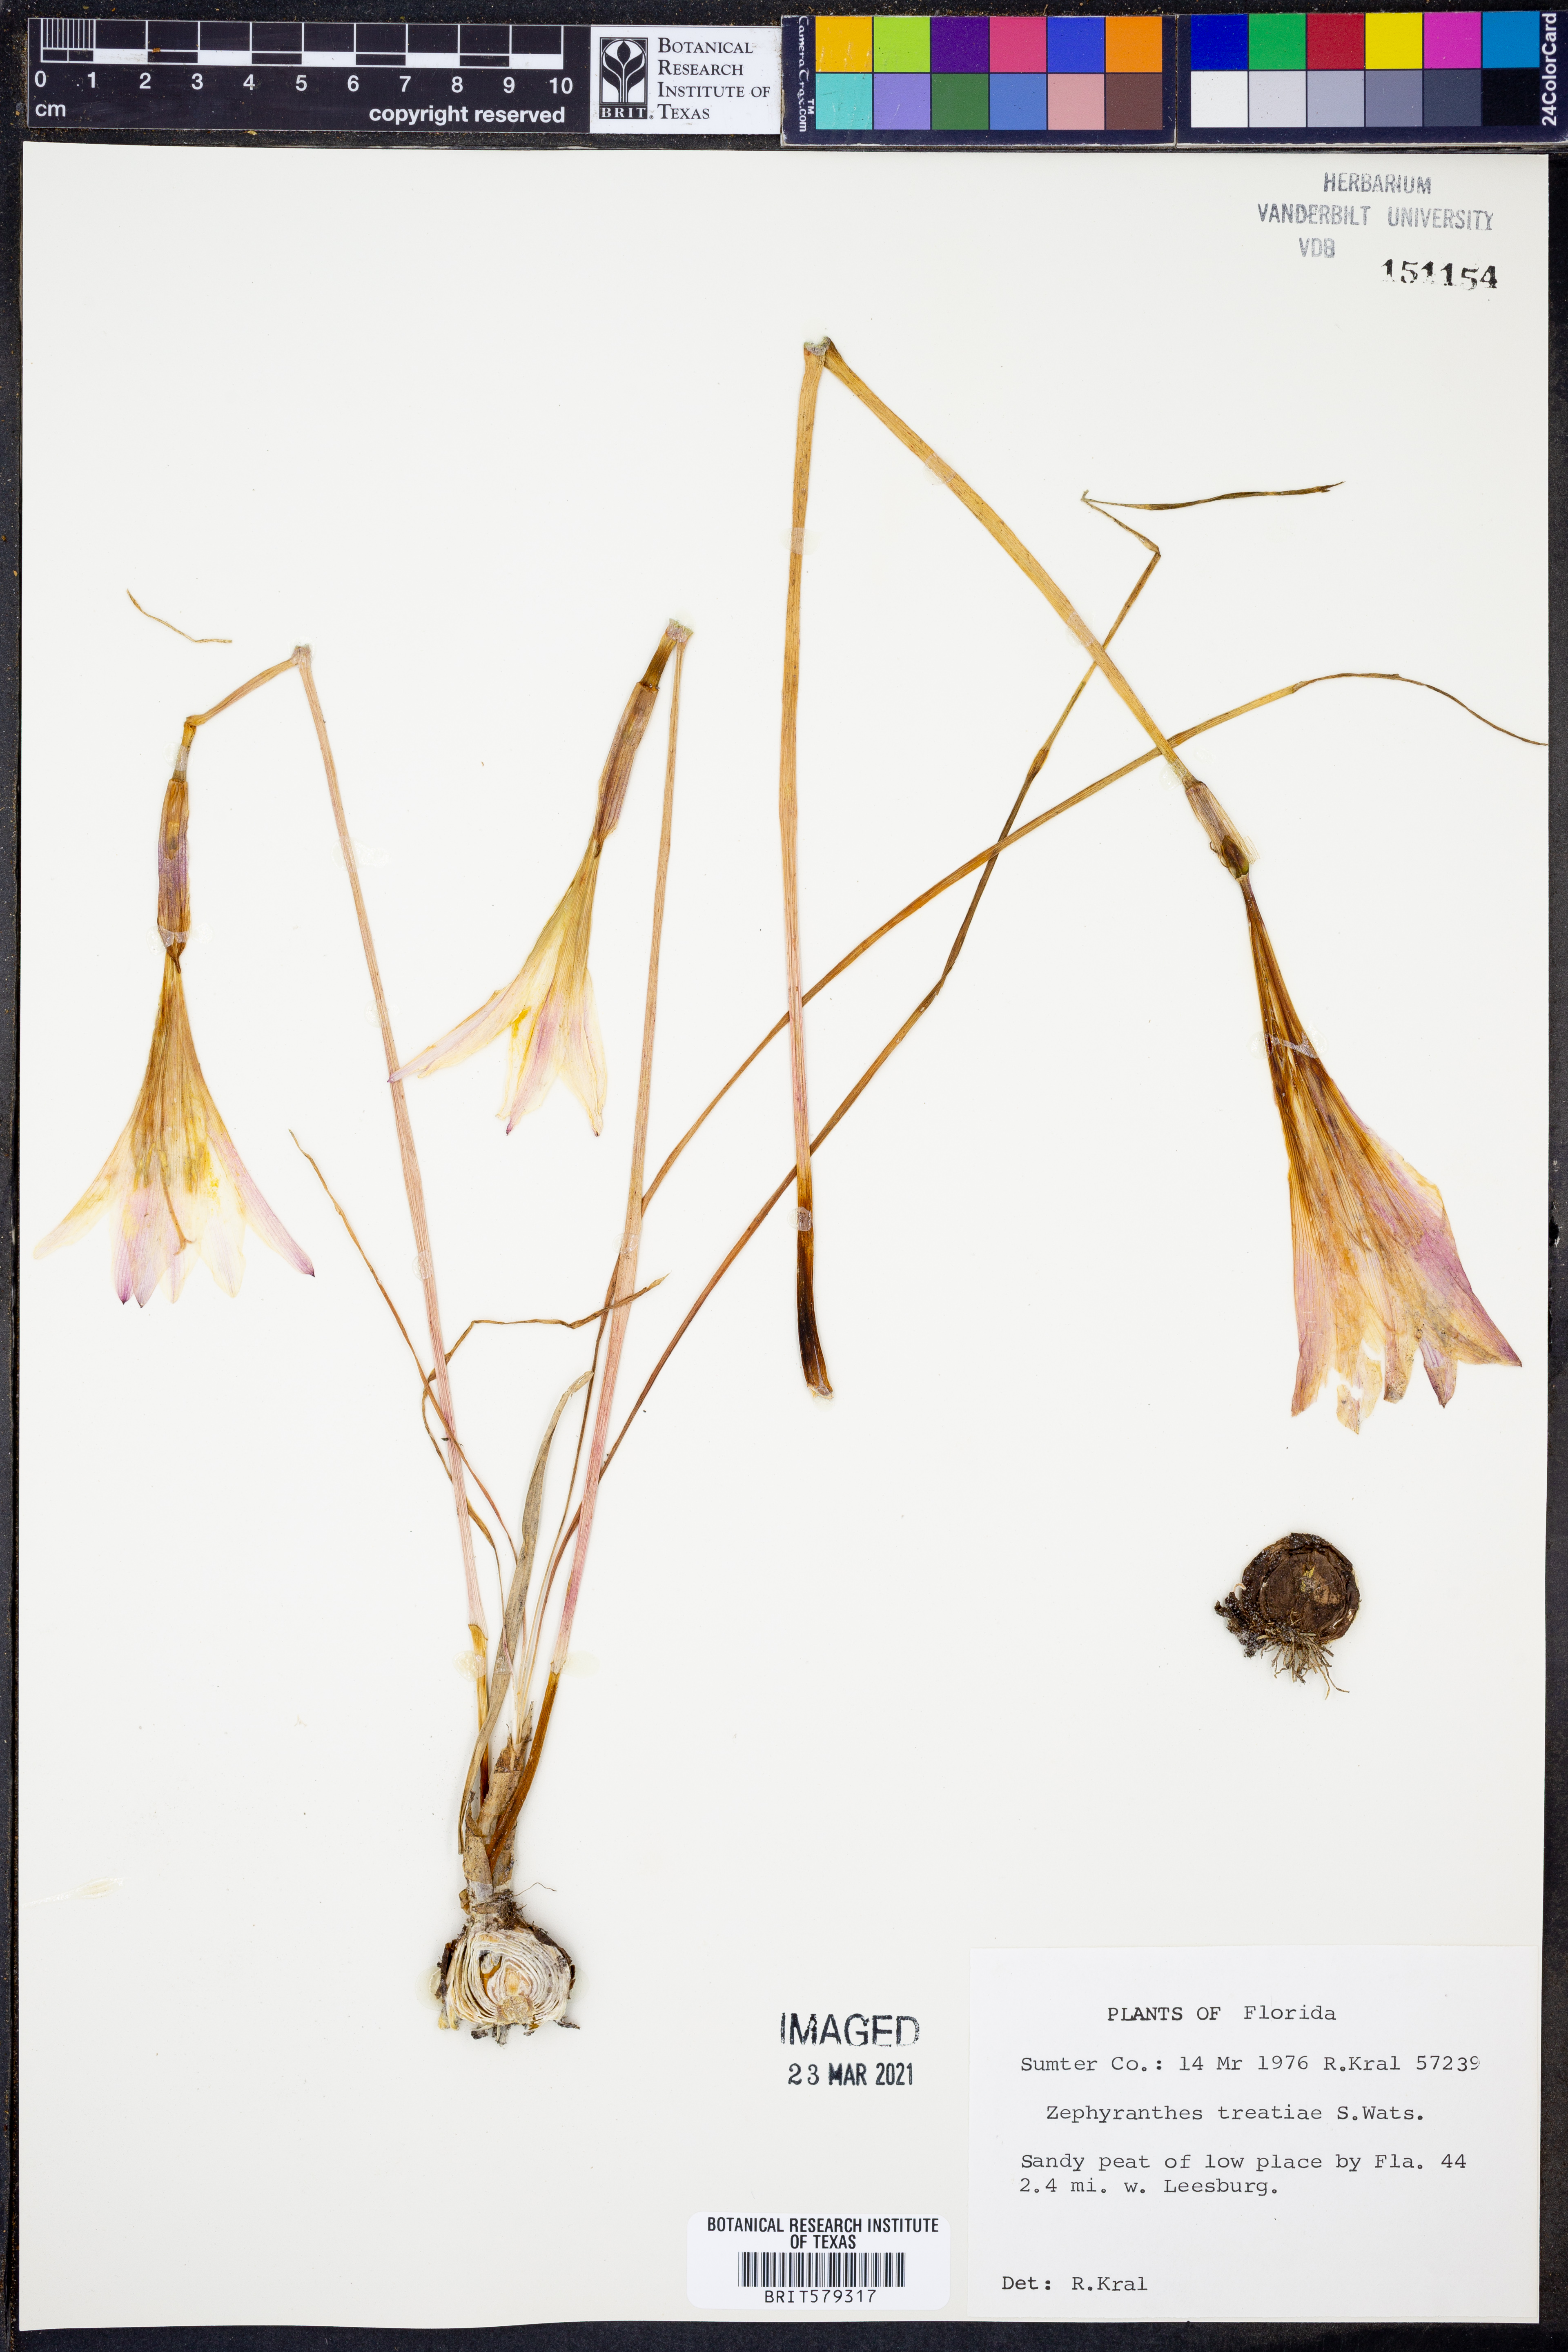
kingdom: Plantae
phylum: Tracheophyta
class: Liliopsida
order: Asparagales
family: Amaryllidaceae
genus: Zephyranthes
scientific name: Zephyranthes treatiae
